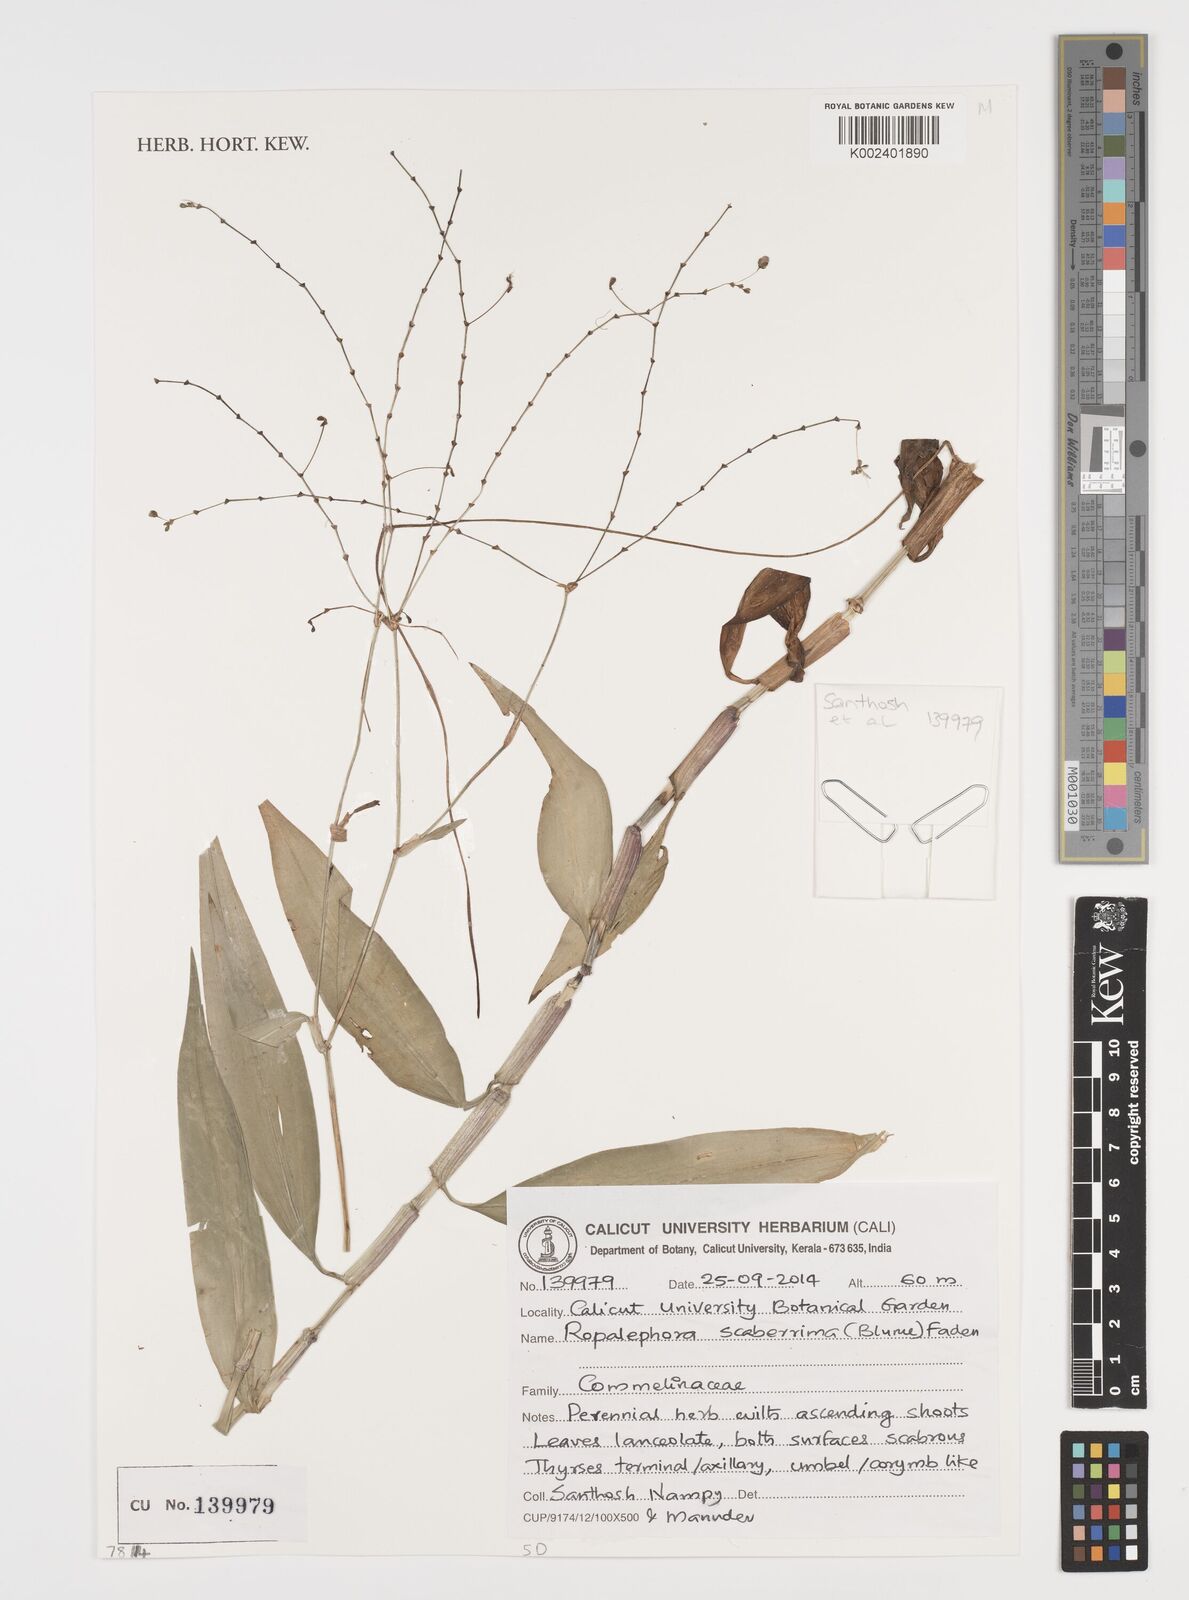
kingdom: Plantae
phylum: Tracheophyta
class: Liliopsida
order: Commelinales
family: Commelinaceae
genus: Rhopalephora
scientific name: Rhopalephora scaberrima
